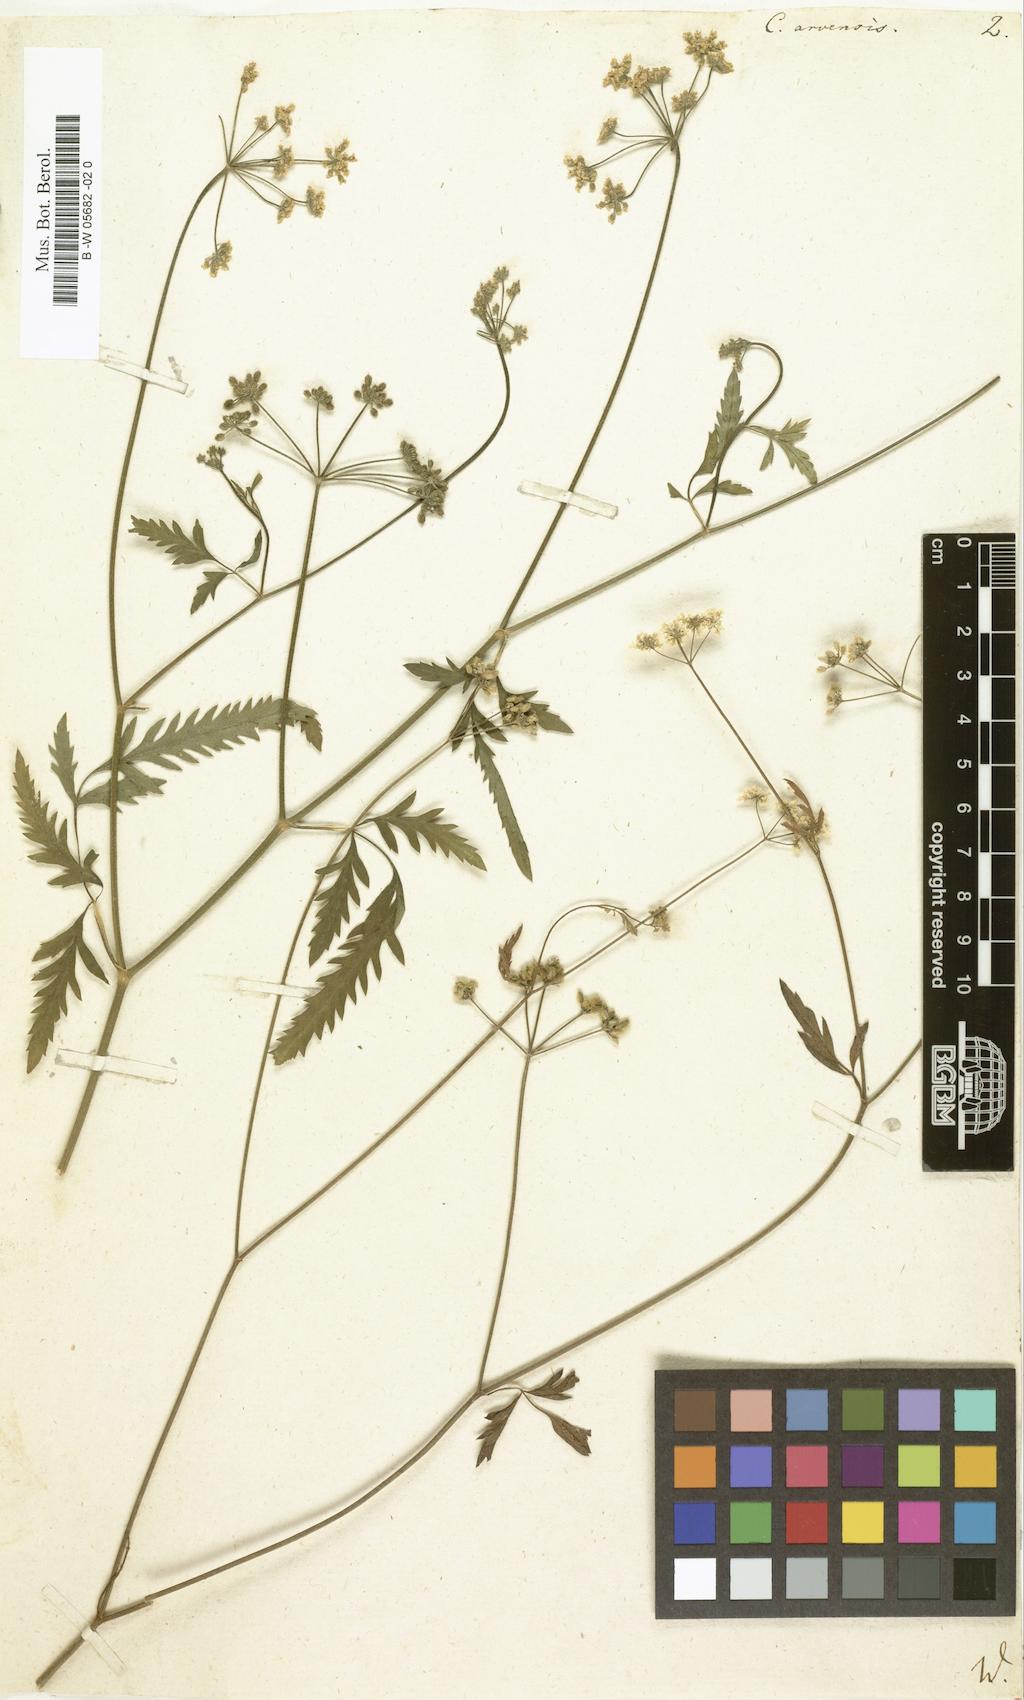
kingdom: Plantae
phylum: Tracheophyta
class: Magnoliopsida
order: Apiales
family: Apiaceae
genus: Torilis
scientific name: Torilis arvensis
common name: Spreading hedge-parsley
